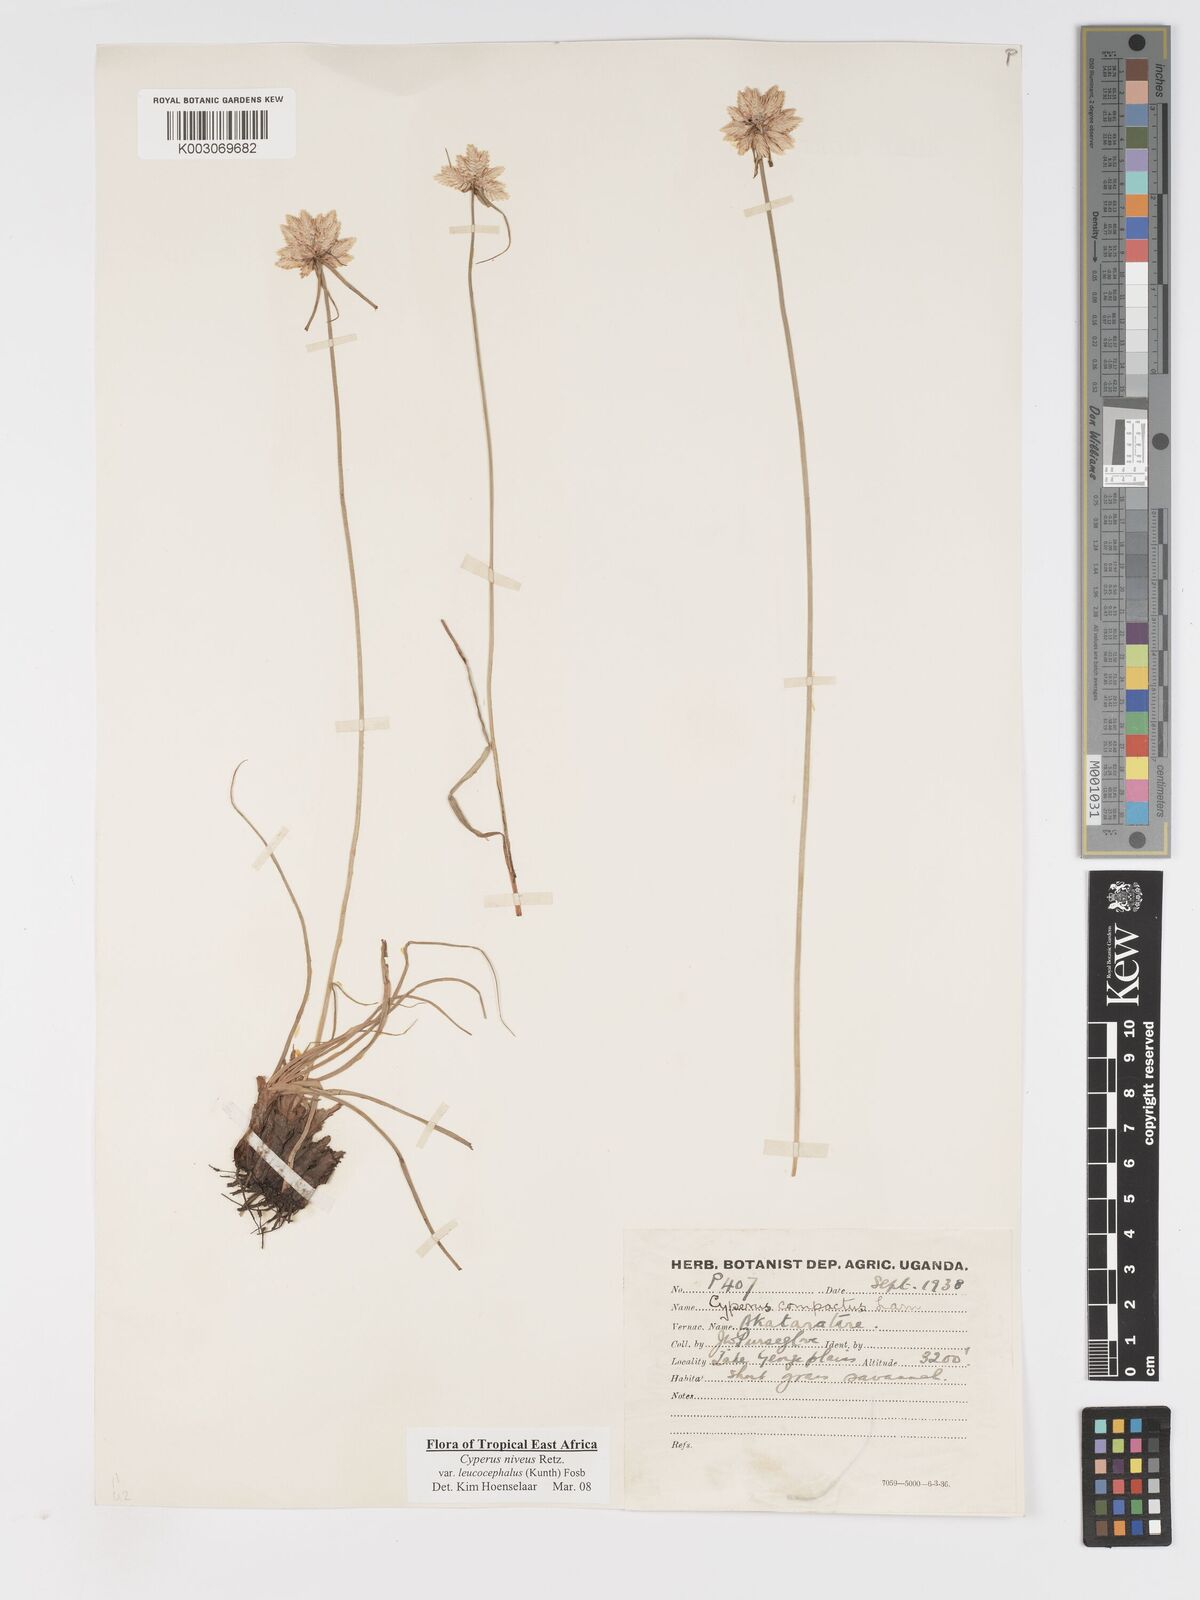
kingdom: Plantae
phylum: Tracheophyta
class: Liliopsida
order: Poales
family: Cyperaceae
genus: Cyperus
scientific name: Cyperus niveus
